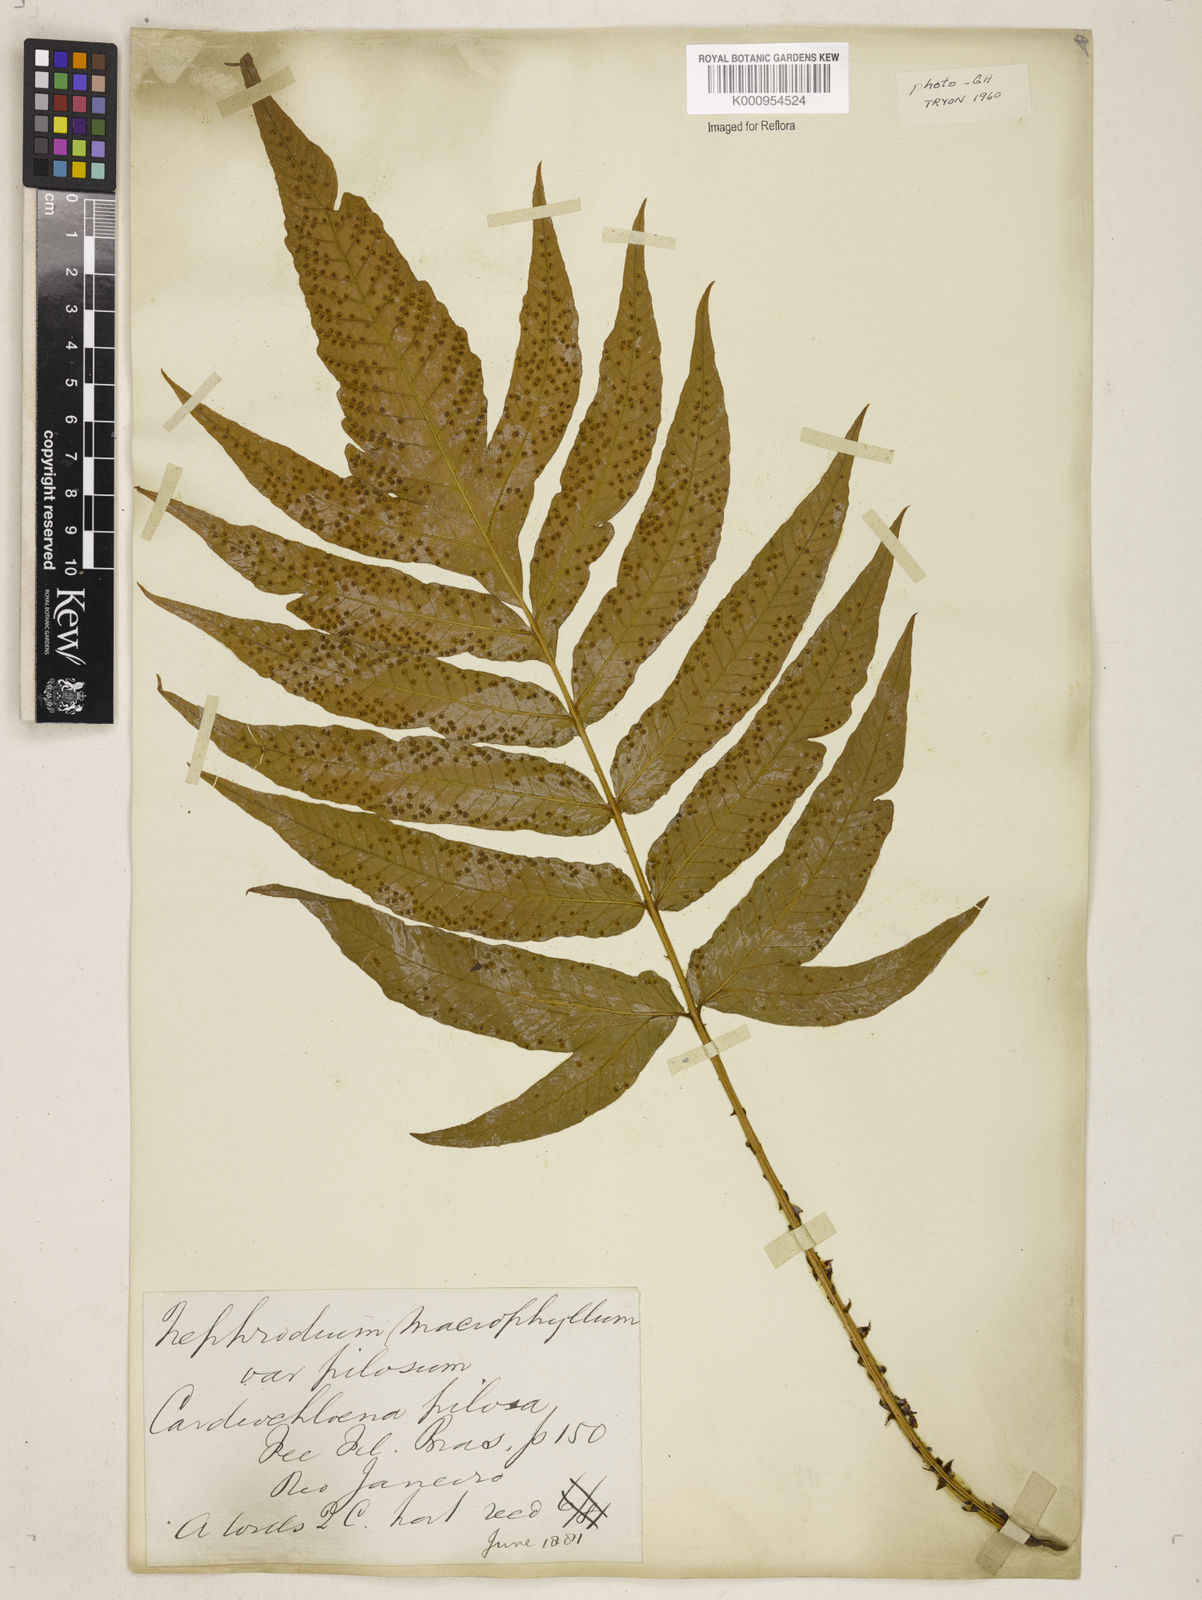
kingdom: Plantae
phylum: Tracheophyta
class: Polypodiopsida
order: Polypodiales
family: Tectariaceae
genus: Tectaria
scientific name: Tectaria incisa
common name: Incised halberd fern
